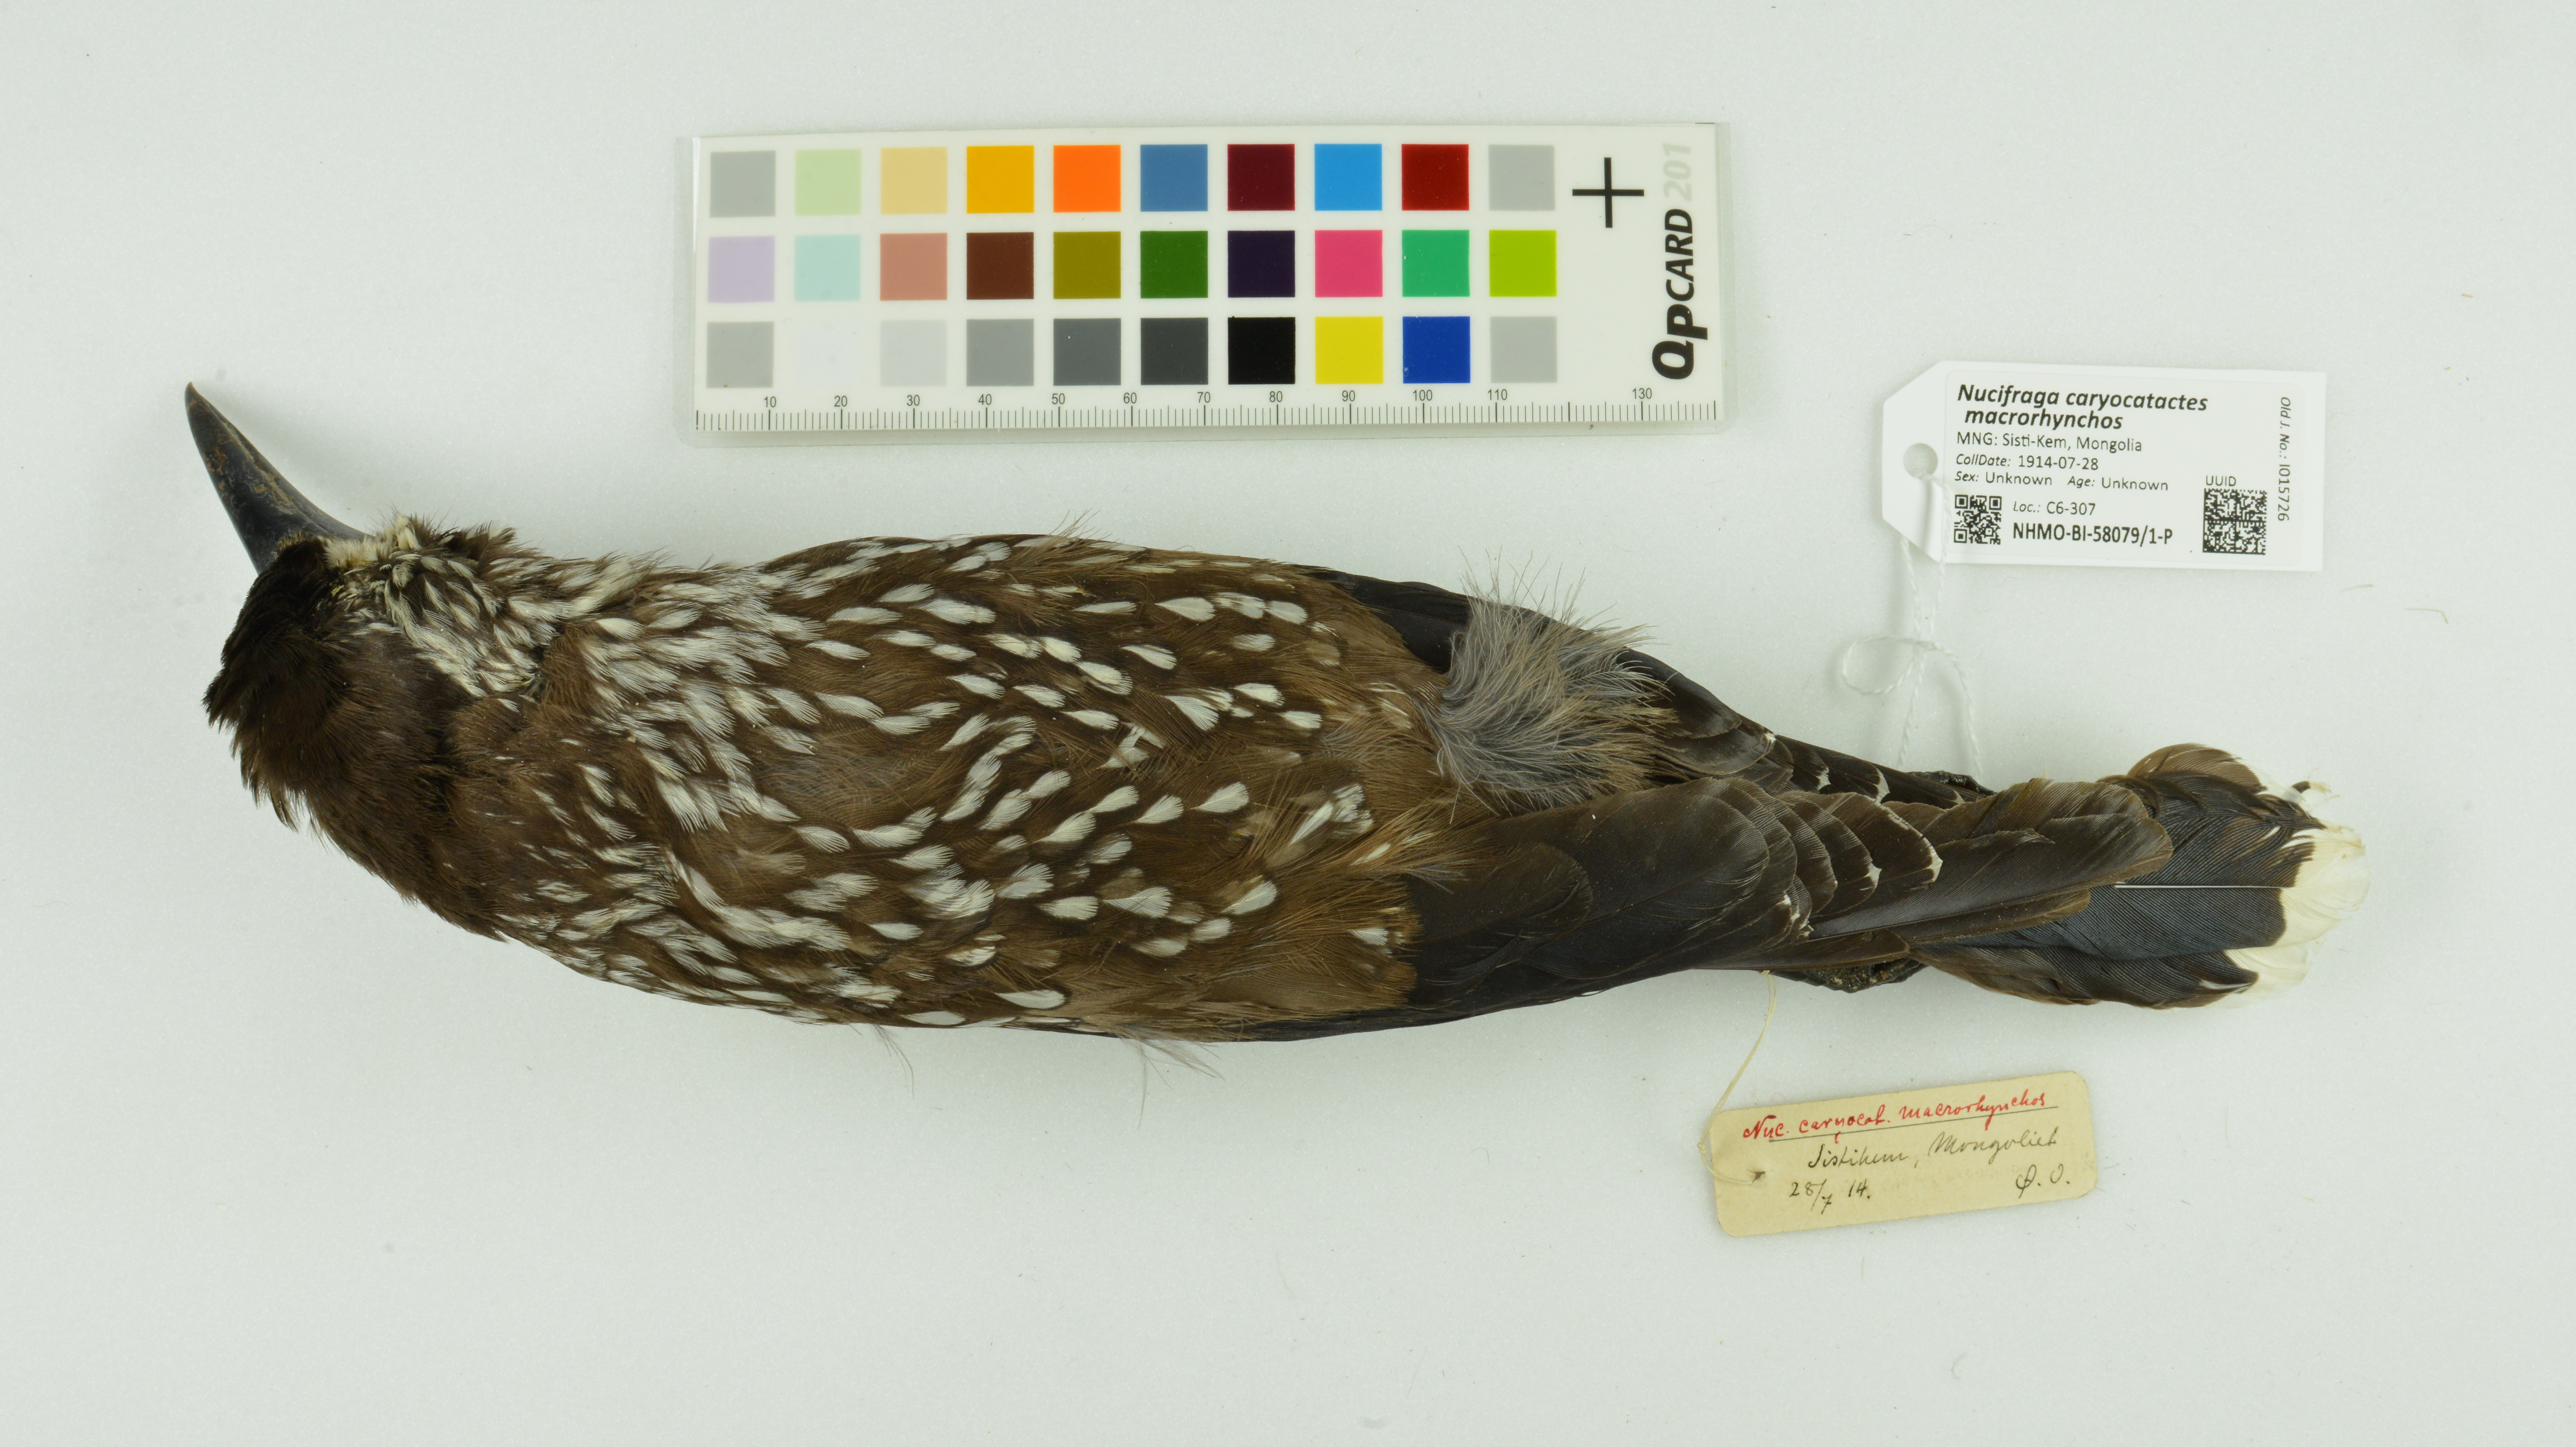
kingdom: Animalia
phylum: Chordata
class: Aves
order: Passeriformes
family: Corvidae
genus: Nucifraga
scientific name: Nucifraga caryocatactes
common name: Spotted nutcracker
